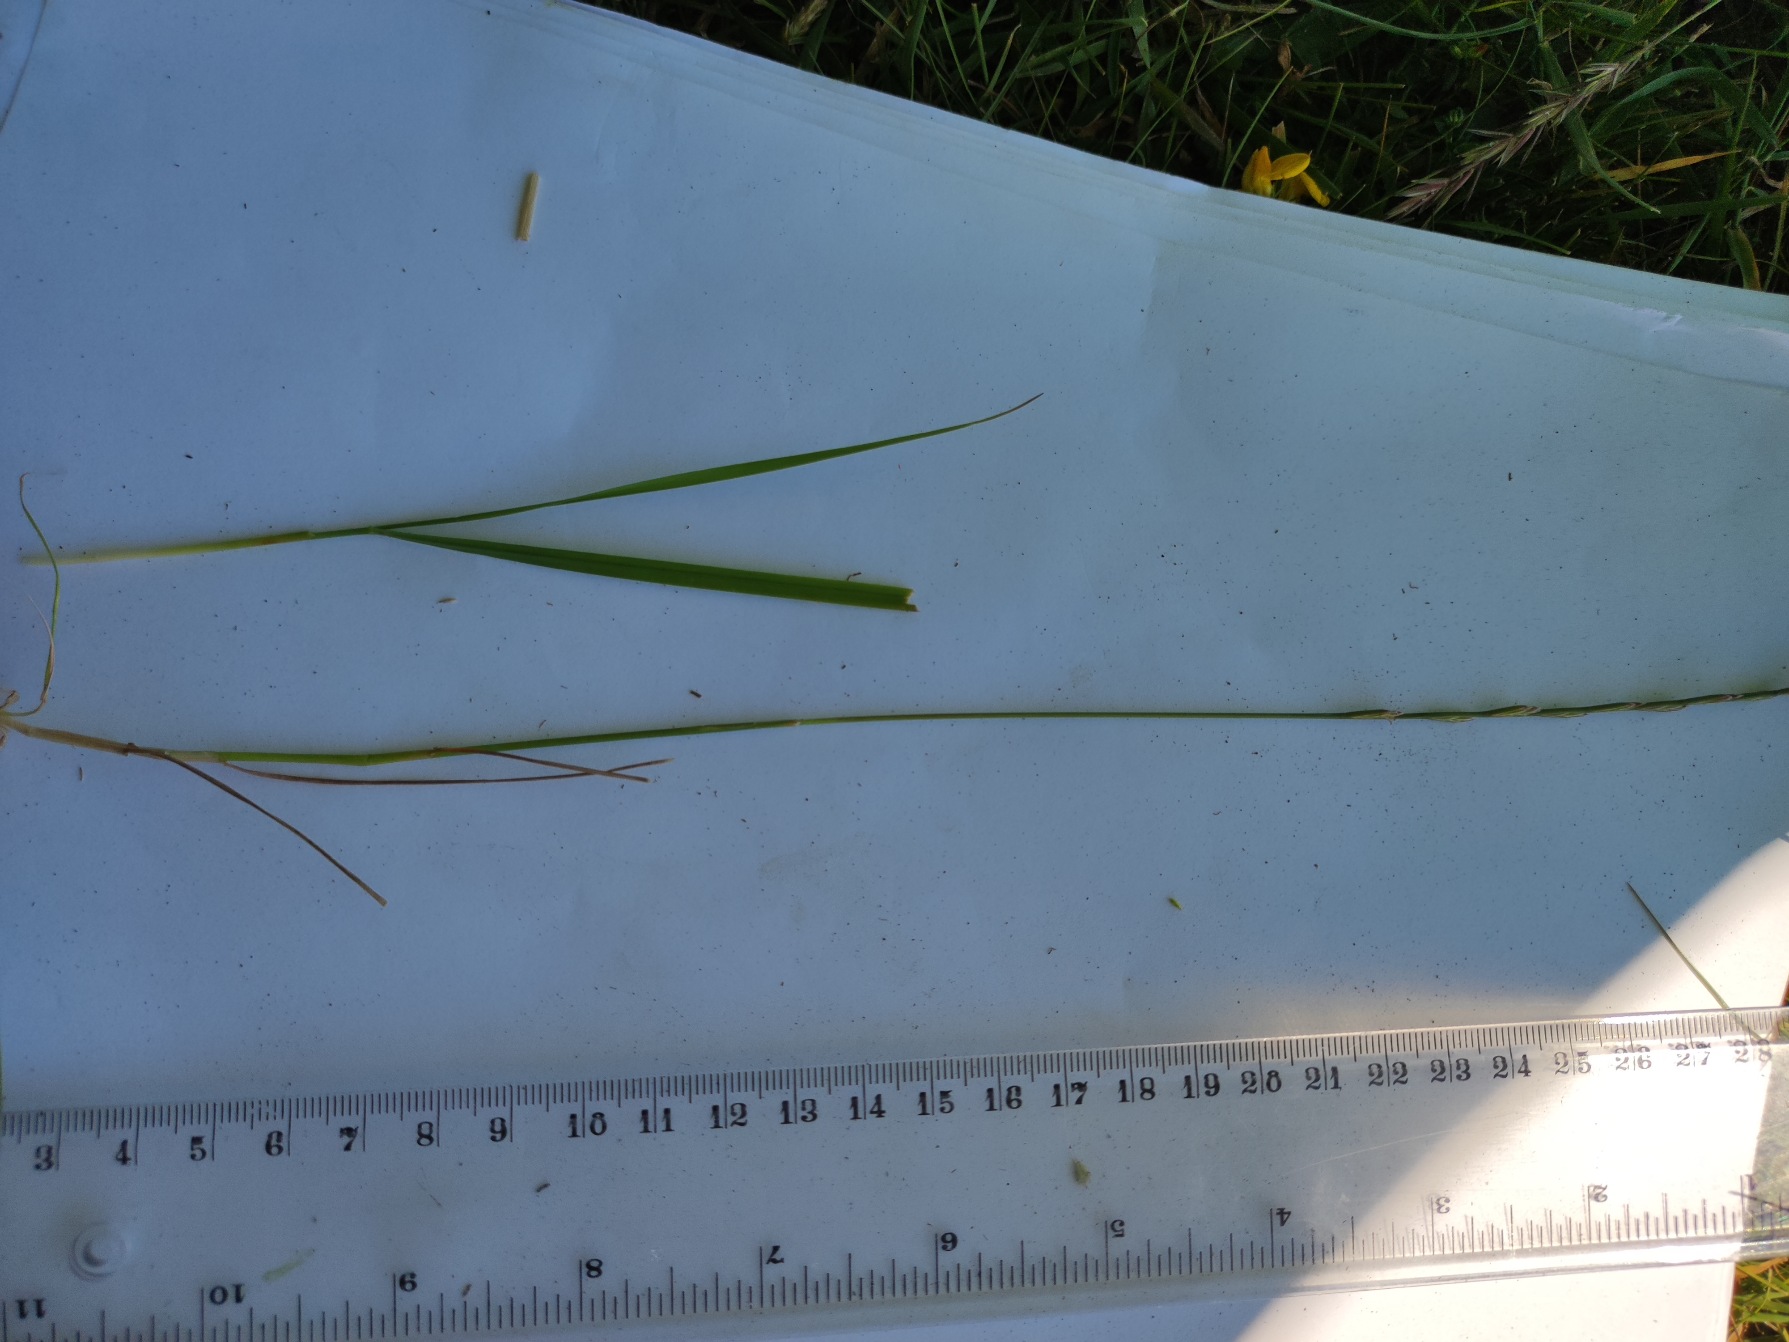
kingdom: Plantae
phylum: Tracheophyta
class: Liliopsida
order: Poales
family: Poaceae
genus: Lolium
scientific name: Lolium perenne
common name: Almindelig rajgræs
